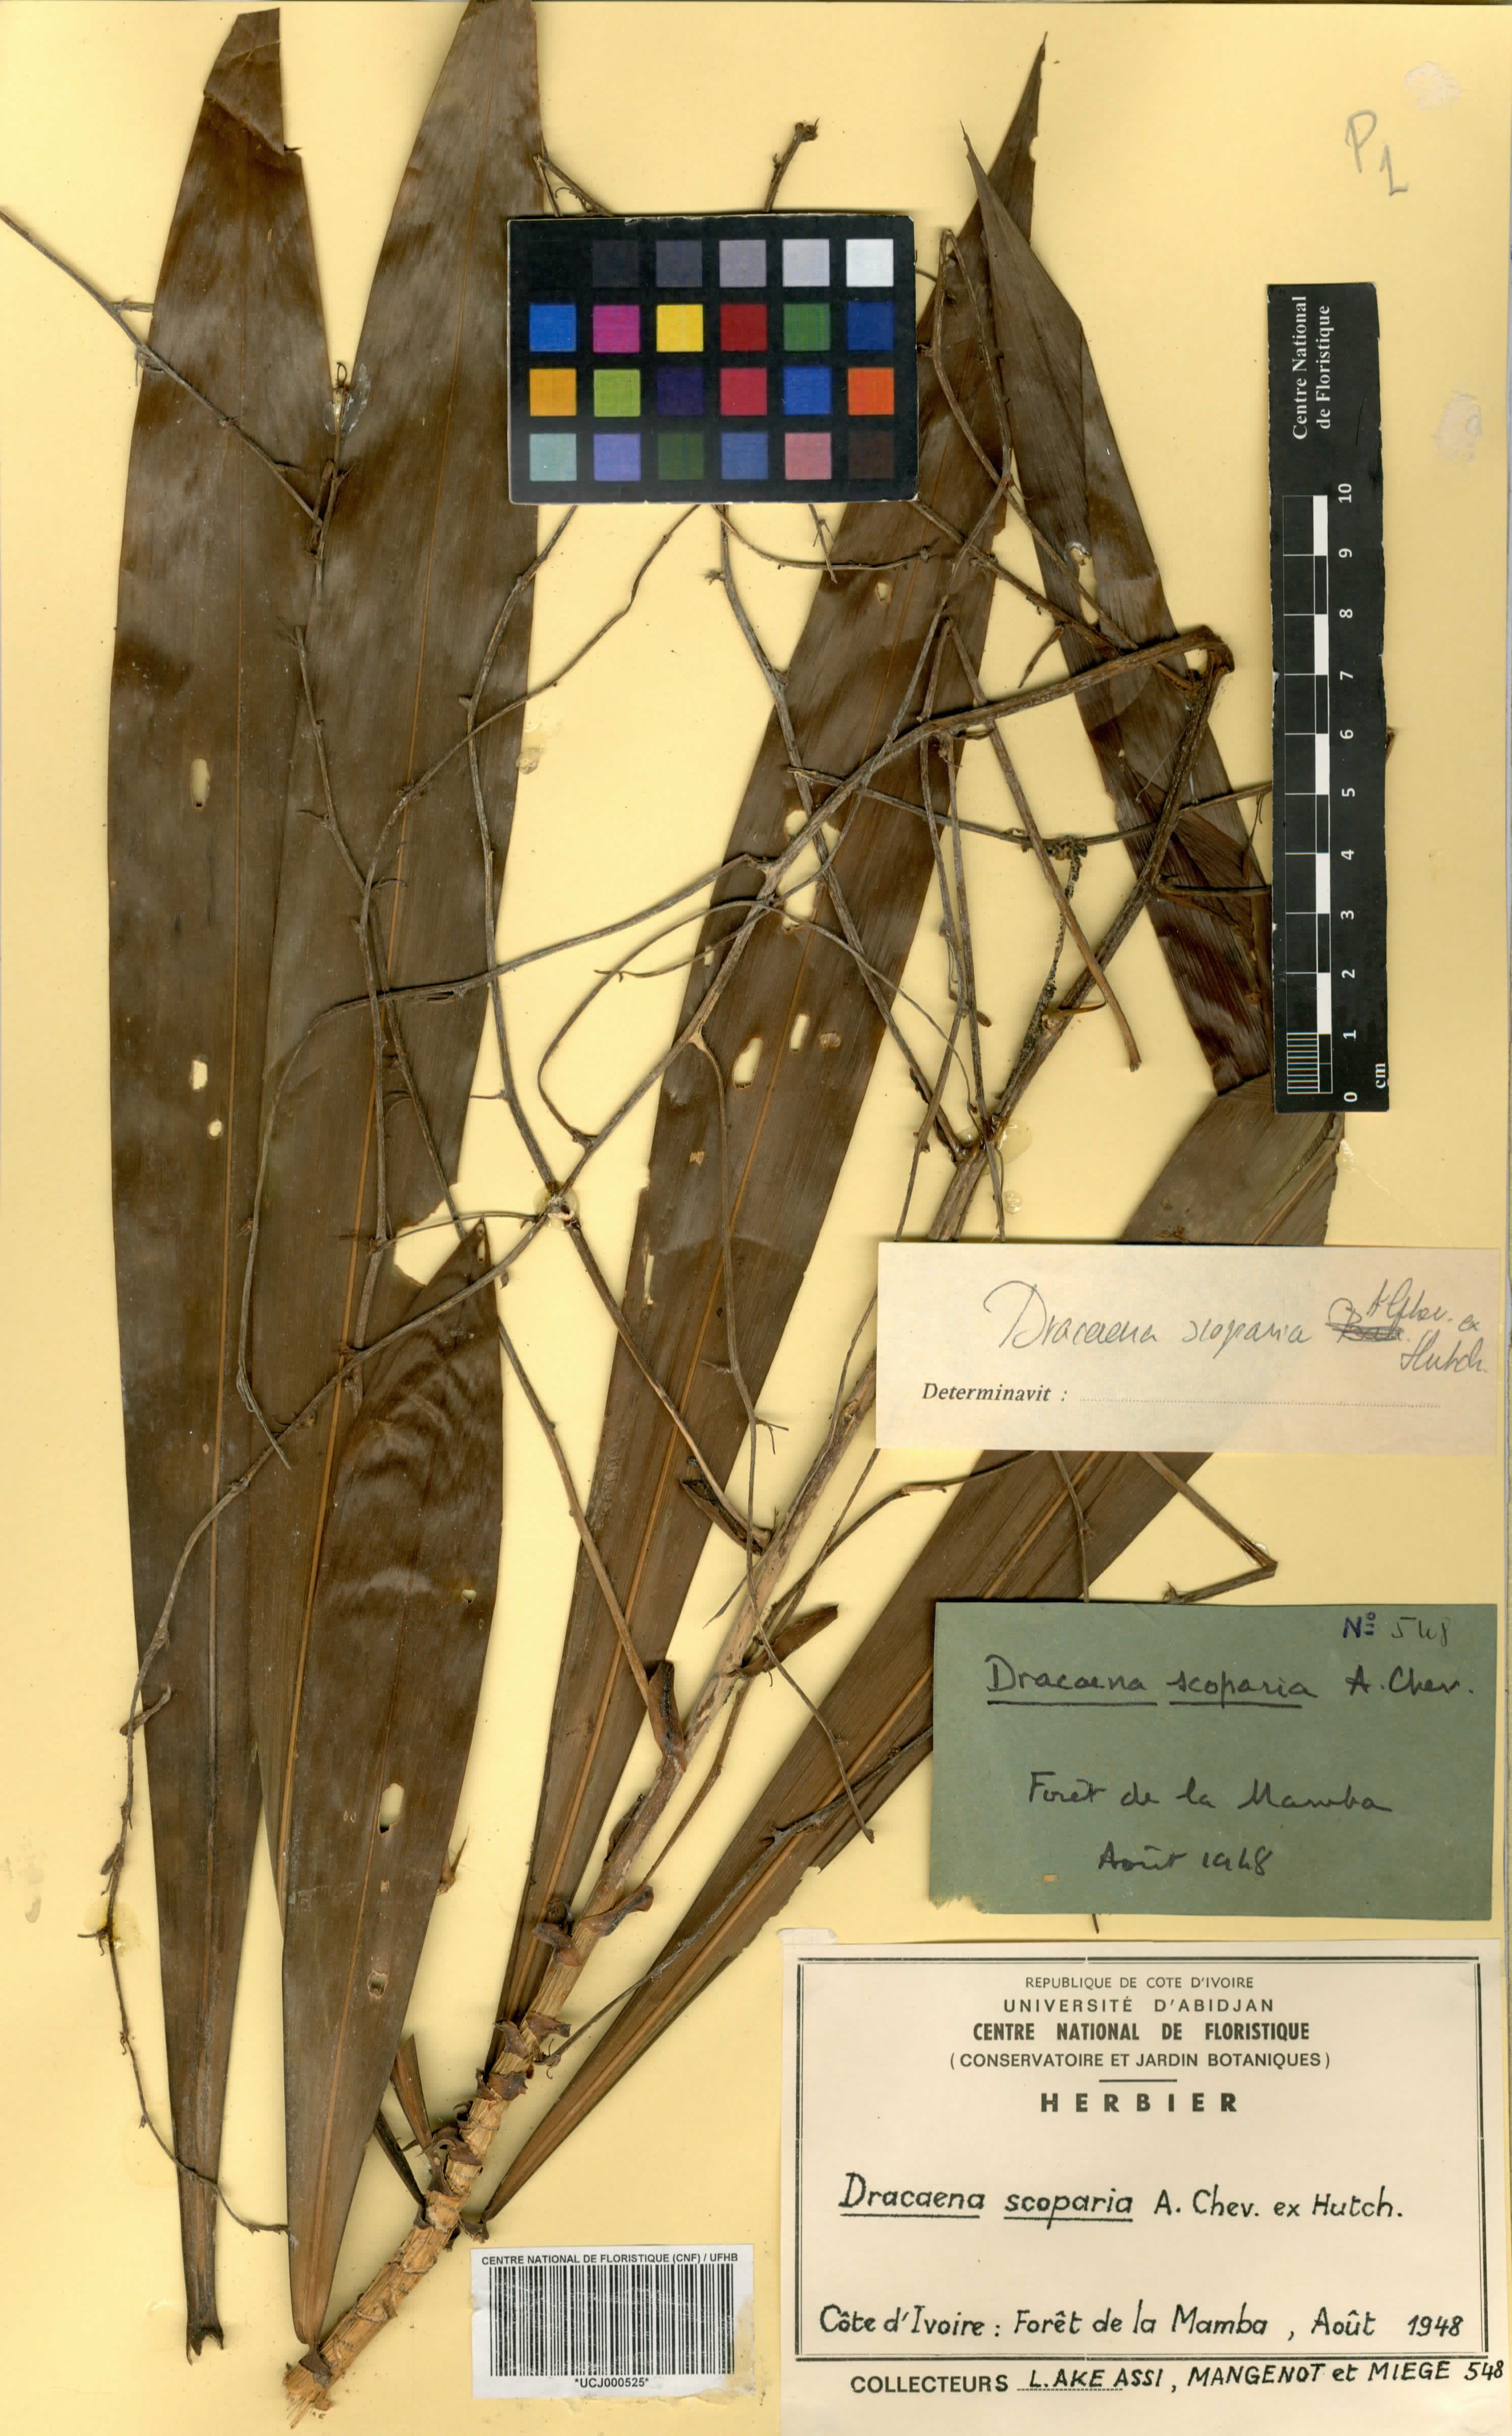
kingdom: Plantae
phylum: Tracheophyta
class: Liliopsida
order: Asparagales
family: Asparagaceae
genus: Dracaena
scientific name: Dracaena cerasifera
